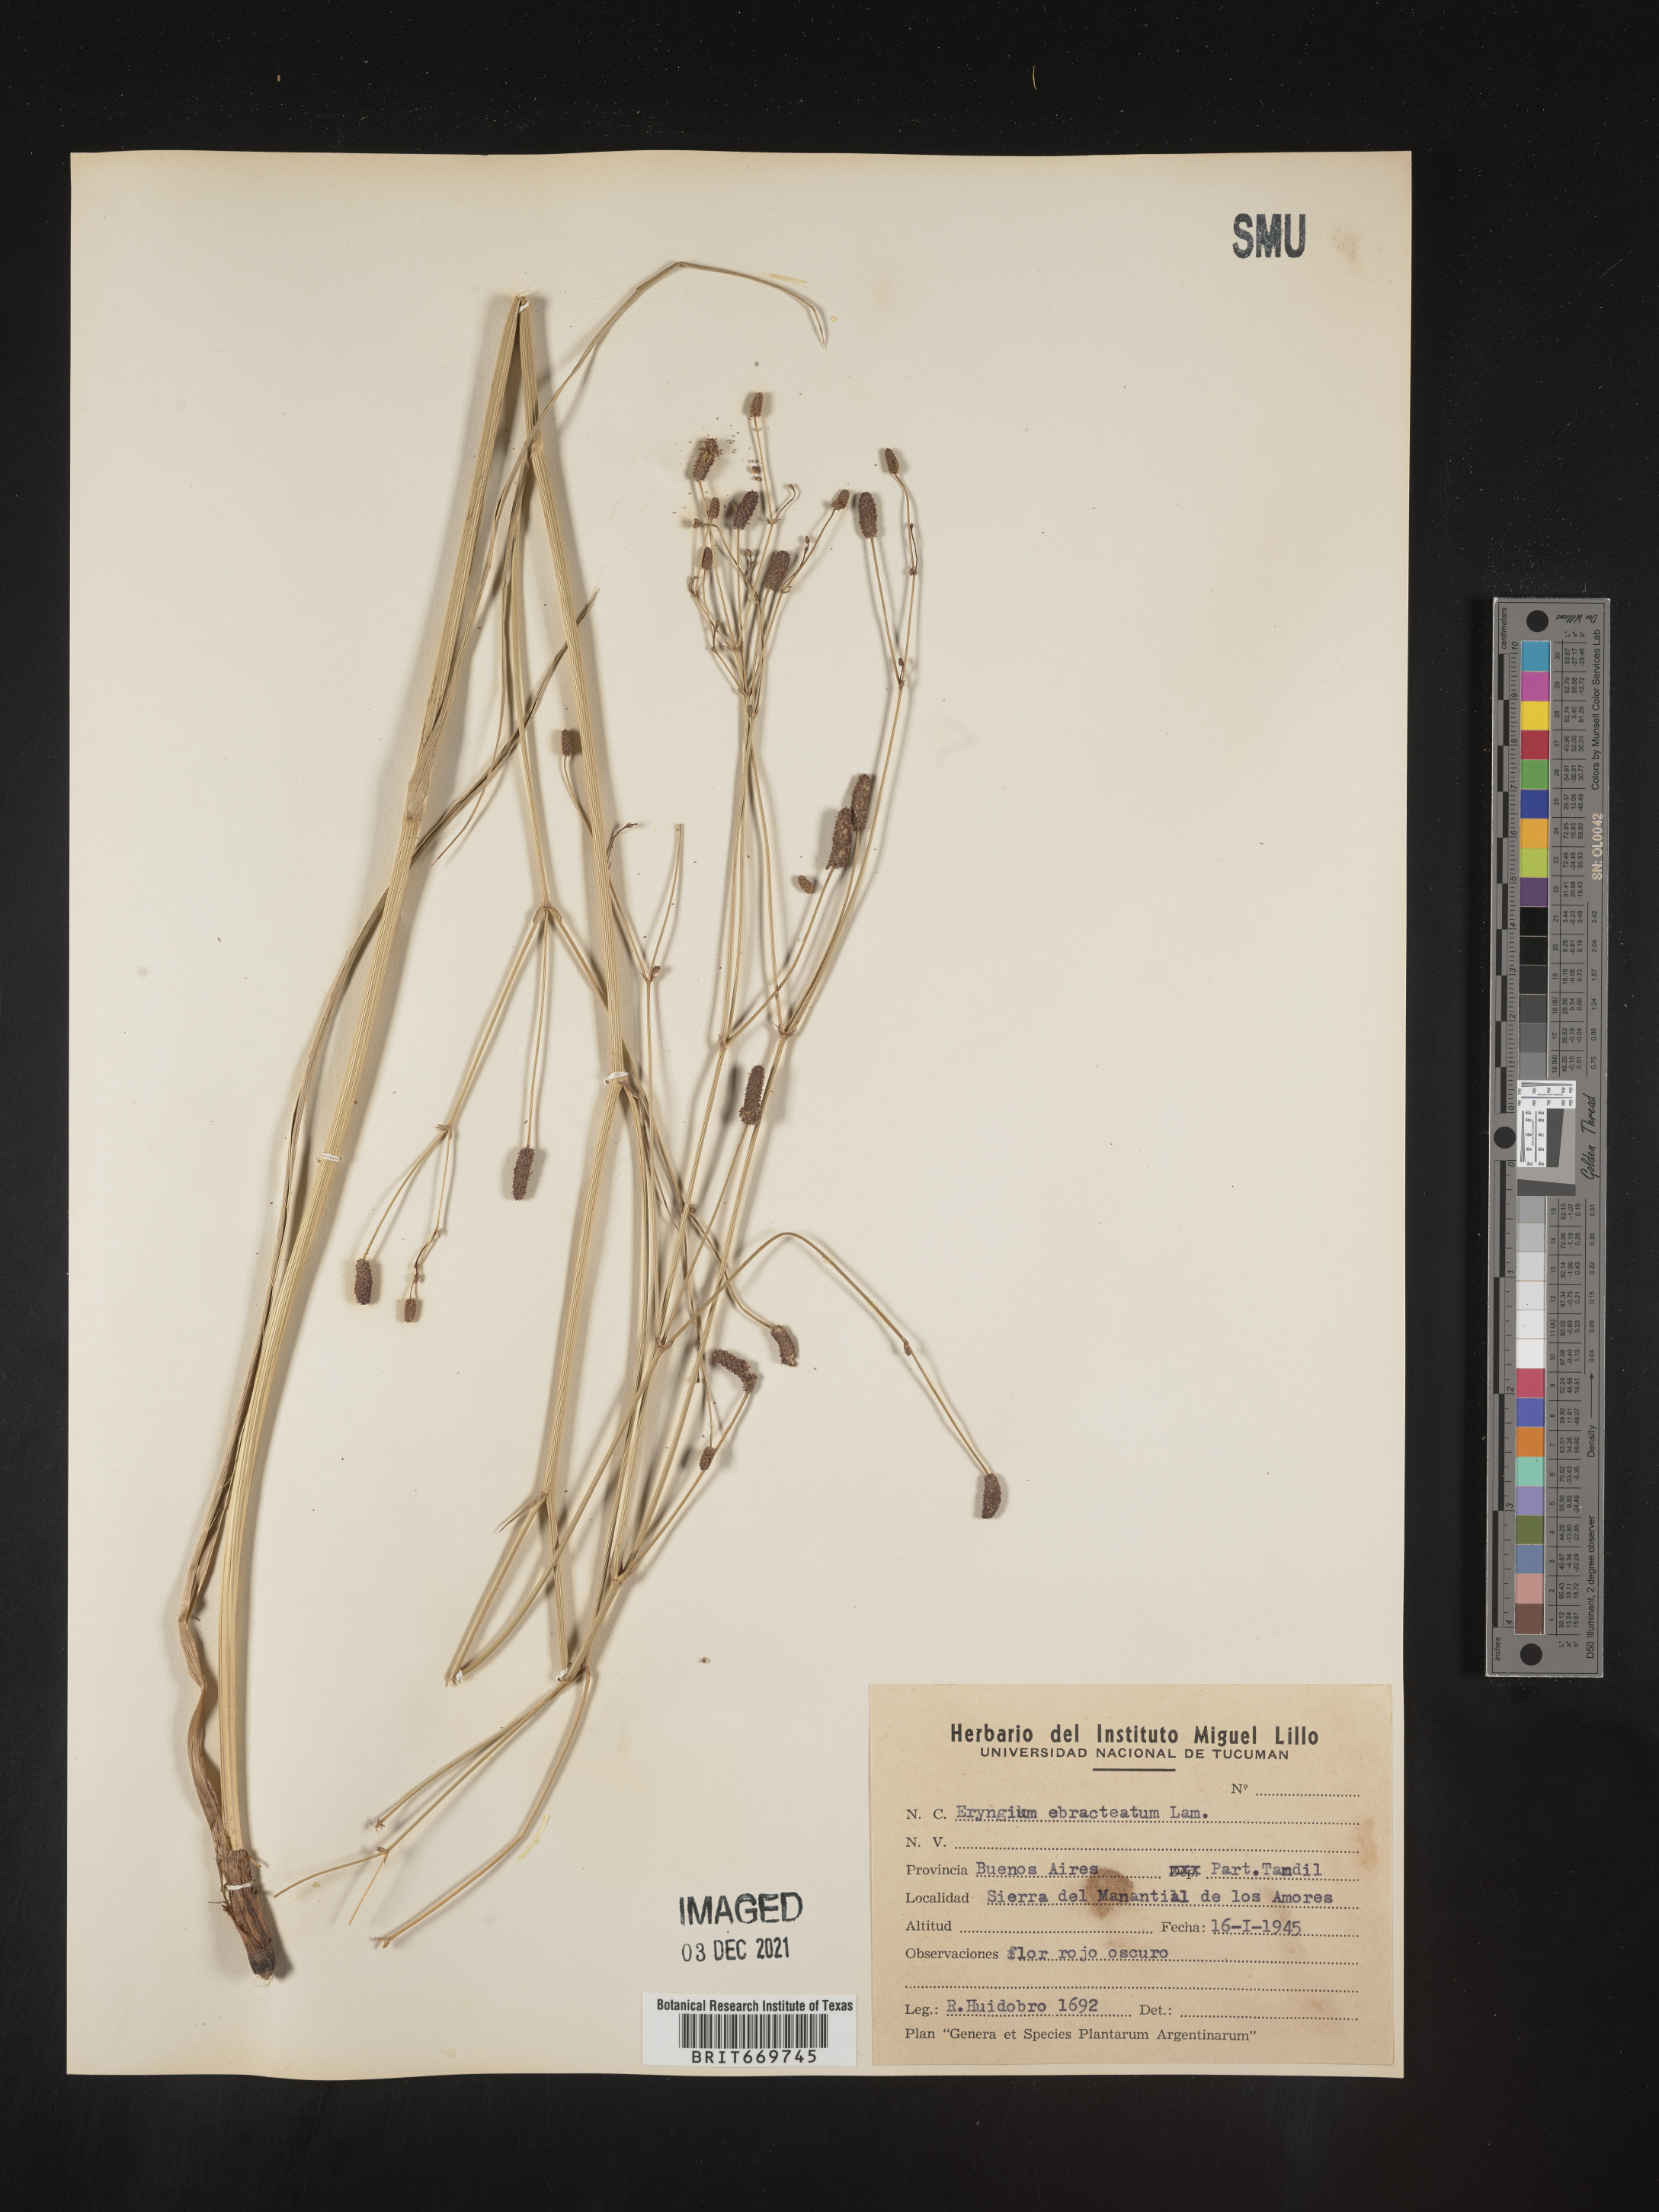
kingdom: Plantae
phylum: Tracheophyta
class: Magnoliopsida
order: Apiales
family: Apiaceae
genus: Eryngium
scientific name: Eryngium
